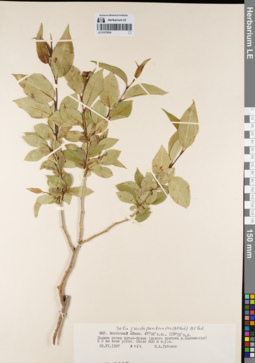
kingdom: Plantae
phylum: Tracheophyta
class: Magnoliopsida
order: Malpighiales
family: Salicaceae
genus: Salix
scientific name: Salix pseudopentandra
